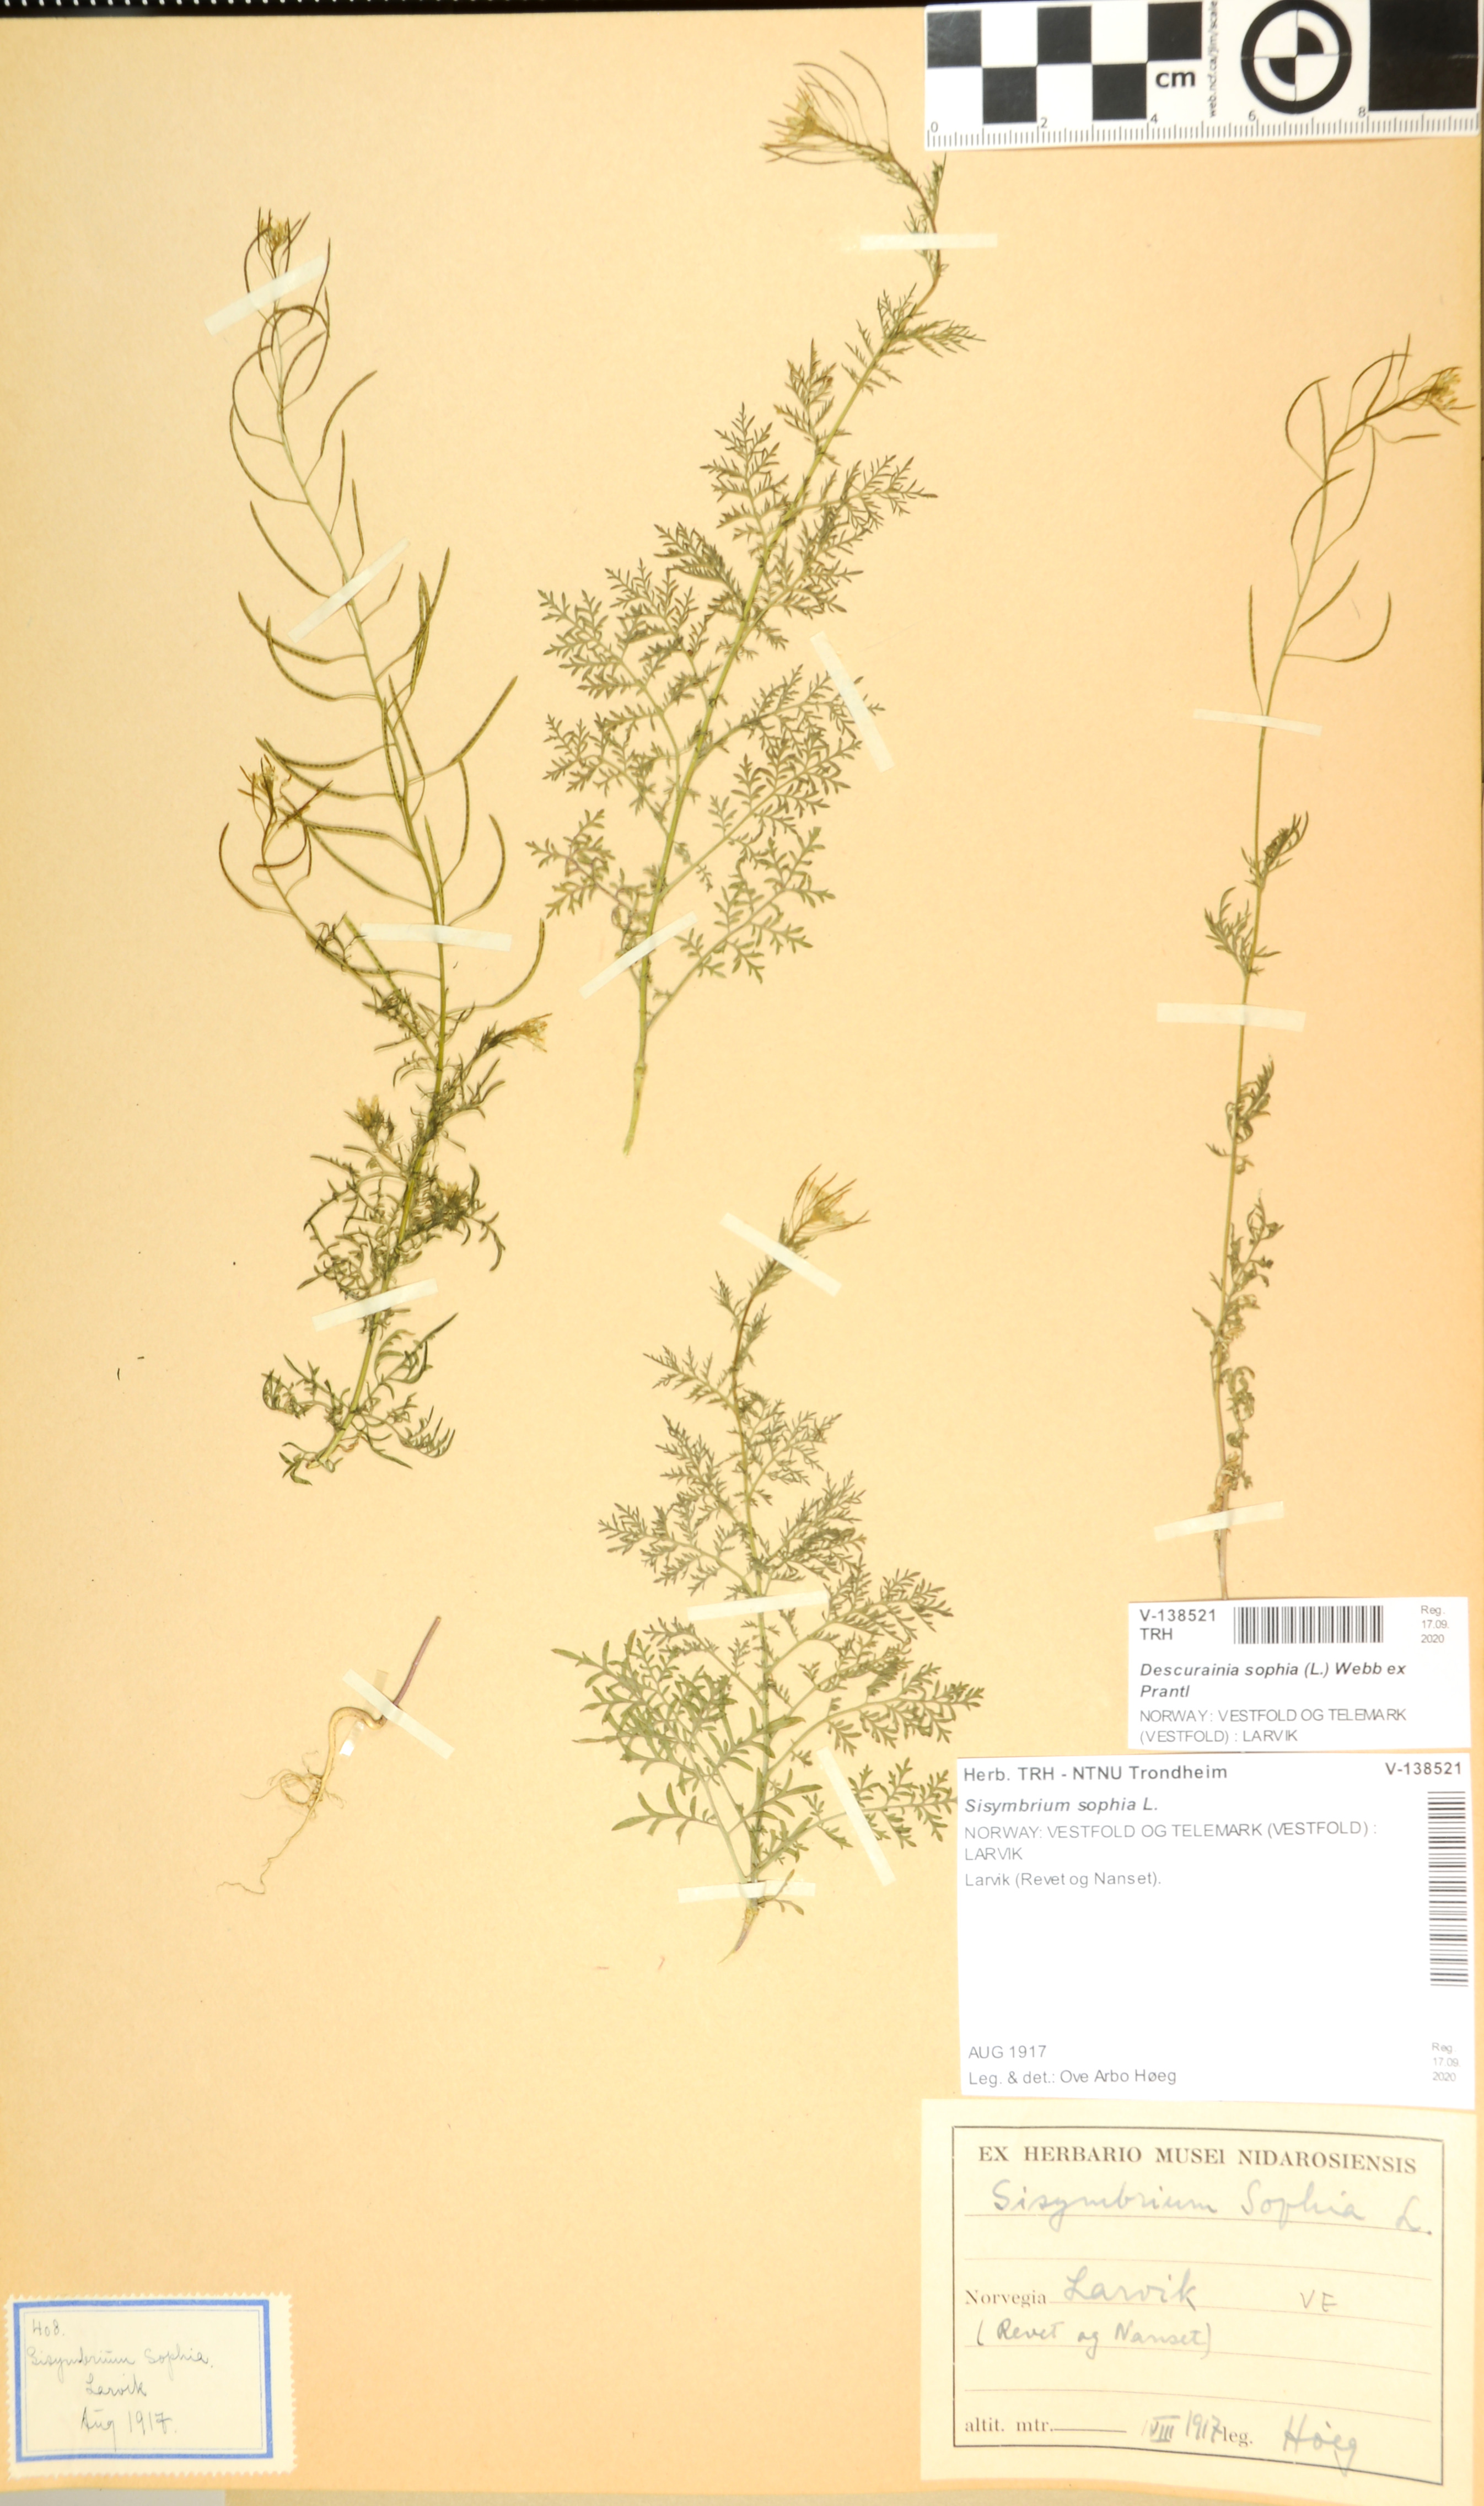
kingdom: Plantae
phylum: Tracheophyta
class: Magnoliopsida
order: Brassicales
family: Brassicaceae
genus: Descurainia
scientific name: Descurainia sophia
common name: Flixweed
